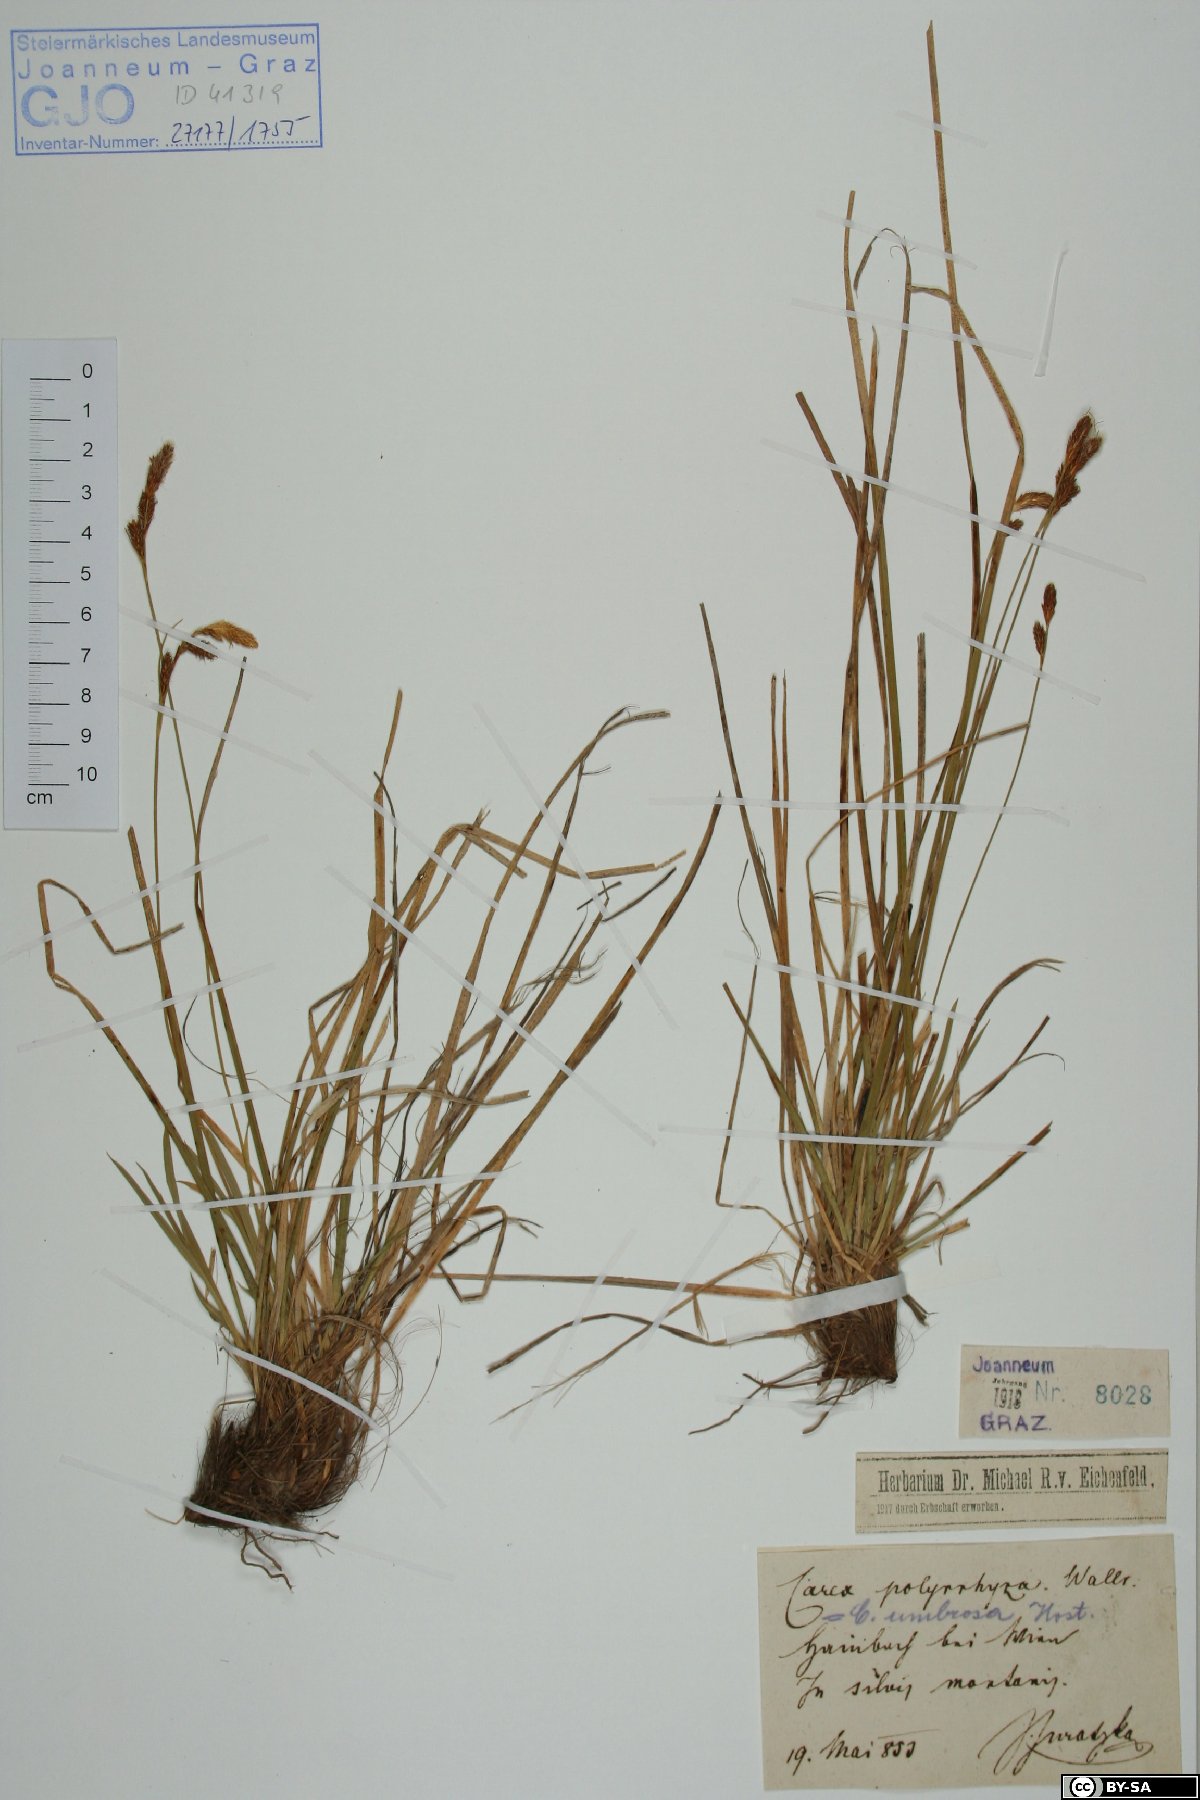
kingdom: Plantae
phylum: Tracheophyta
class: Liliopsida
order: Poales
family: Cyperaceae
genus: Carex
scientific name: Carex umbrosa
